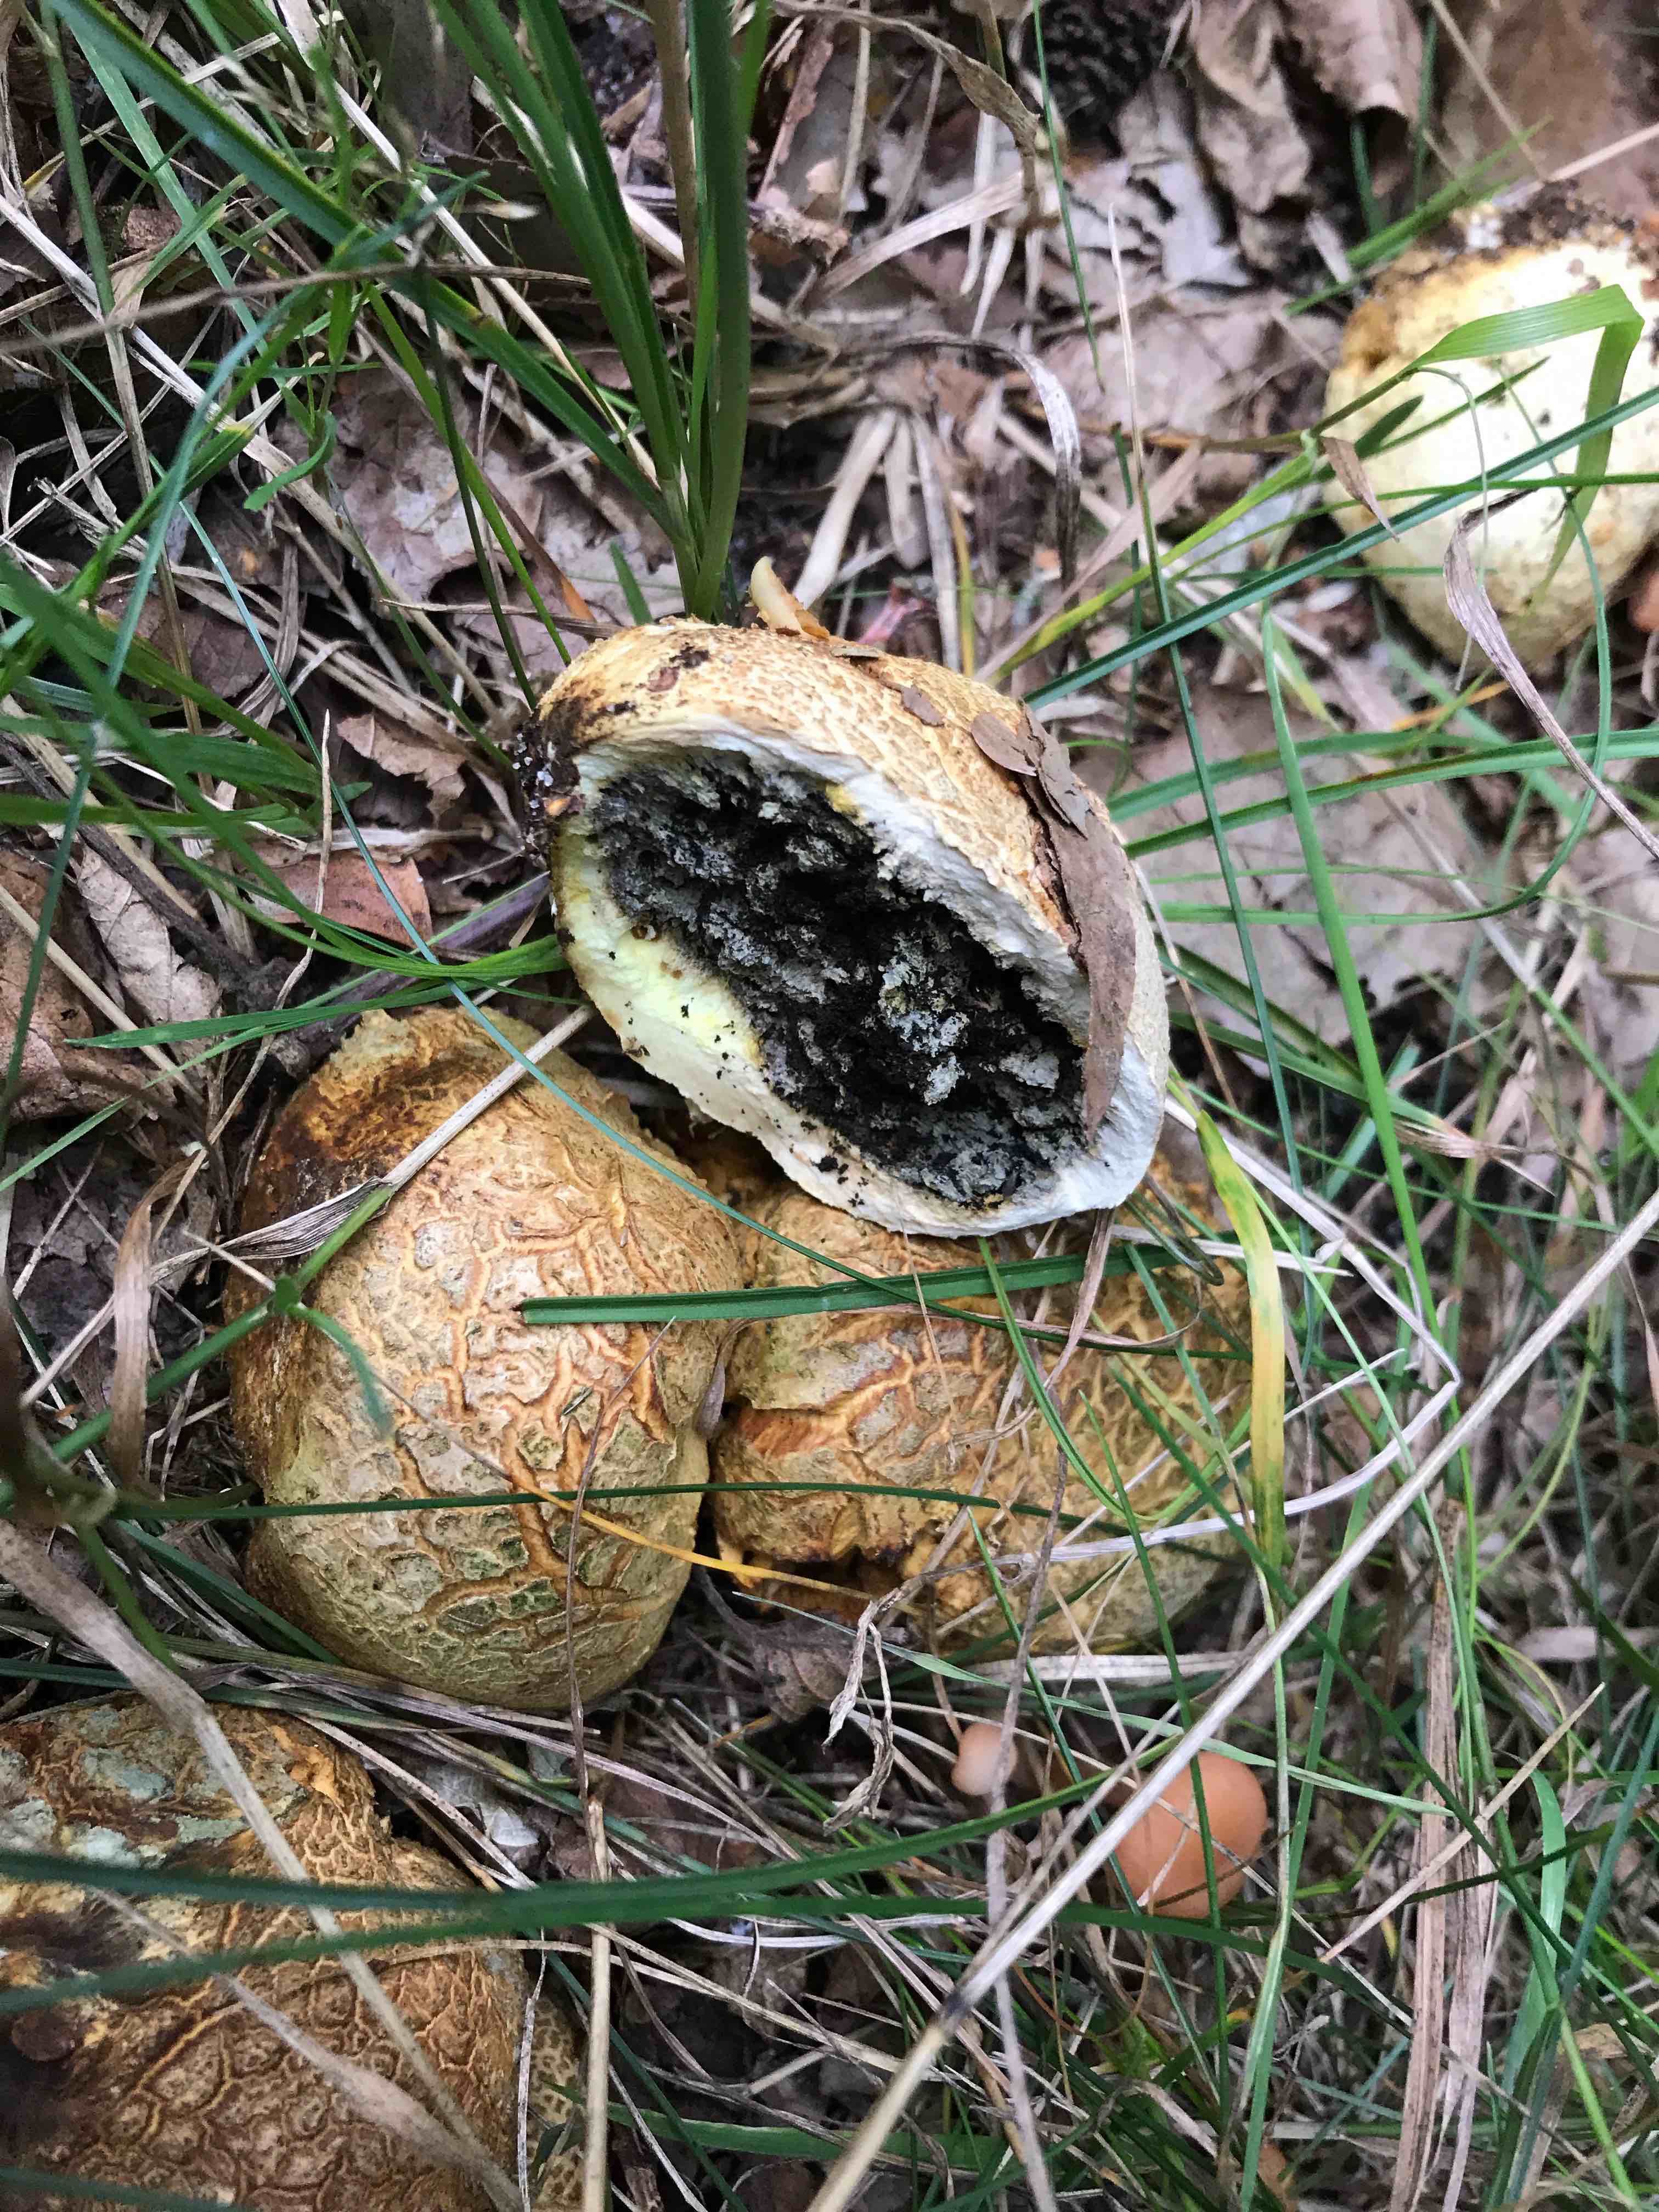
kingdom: Fungi
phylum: Basidiomycota
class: Agaricomycetes
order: Boletales
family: Sclerodermataceae
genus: Scleroderma
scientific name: Scleroderma citrinum
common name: almindelig bruskbold
